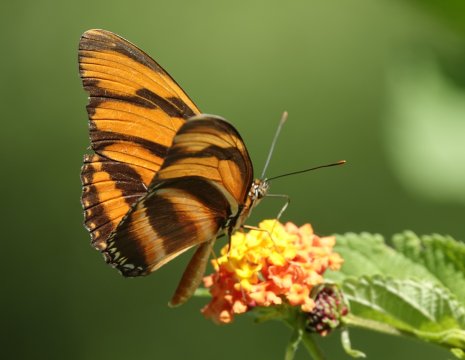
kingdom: Animalia
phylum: Arthropoda
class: Insecta
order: Lepidoptera
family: Nymphalidae
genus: Dryadula
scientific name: Dryadula phaetusa
